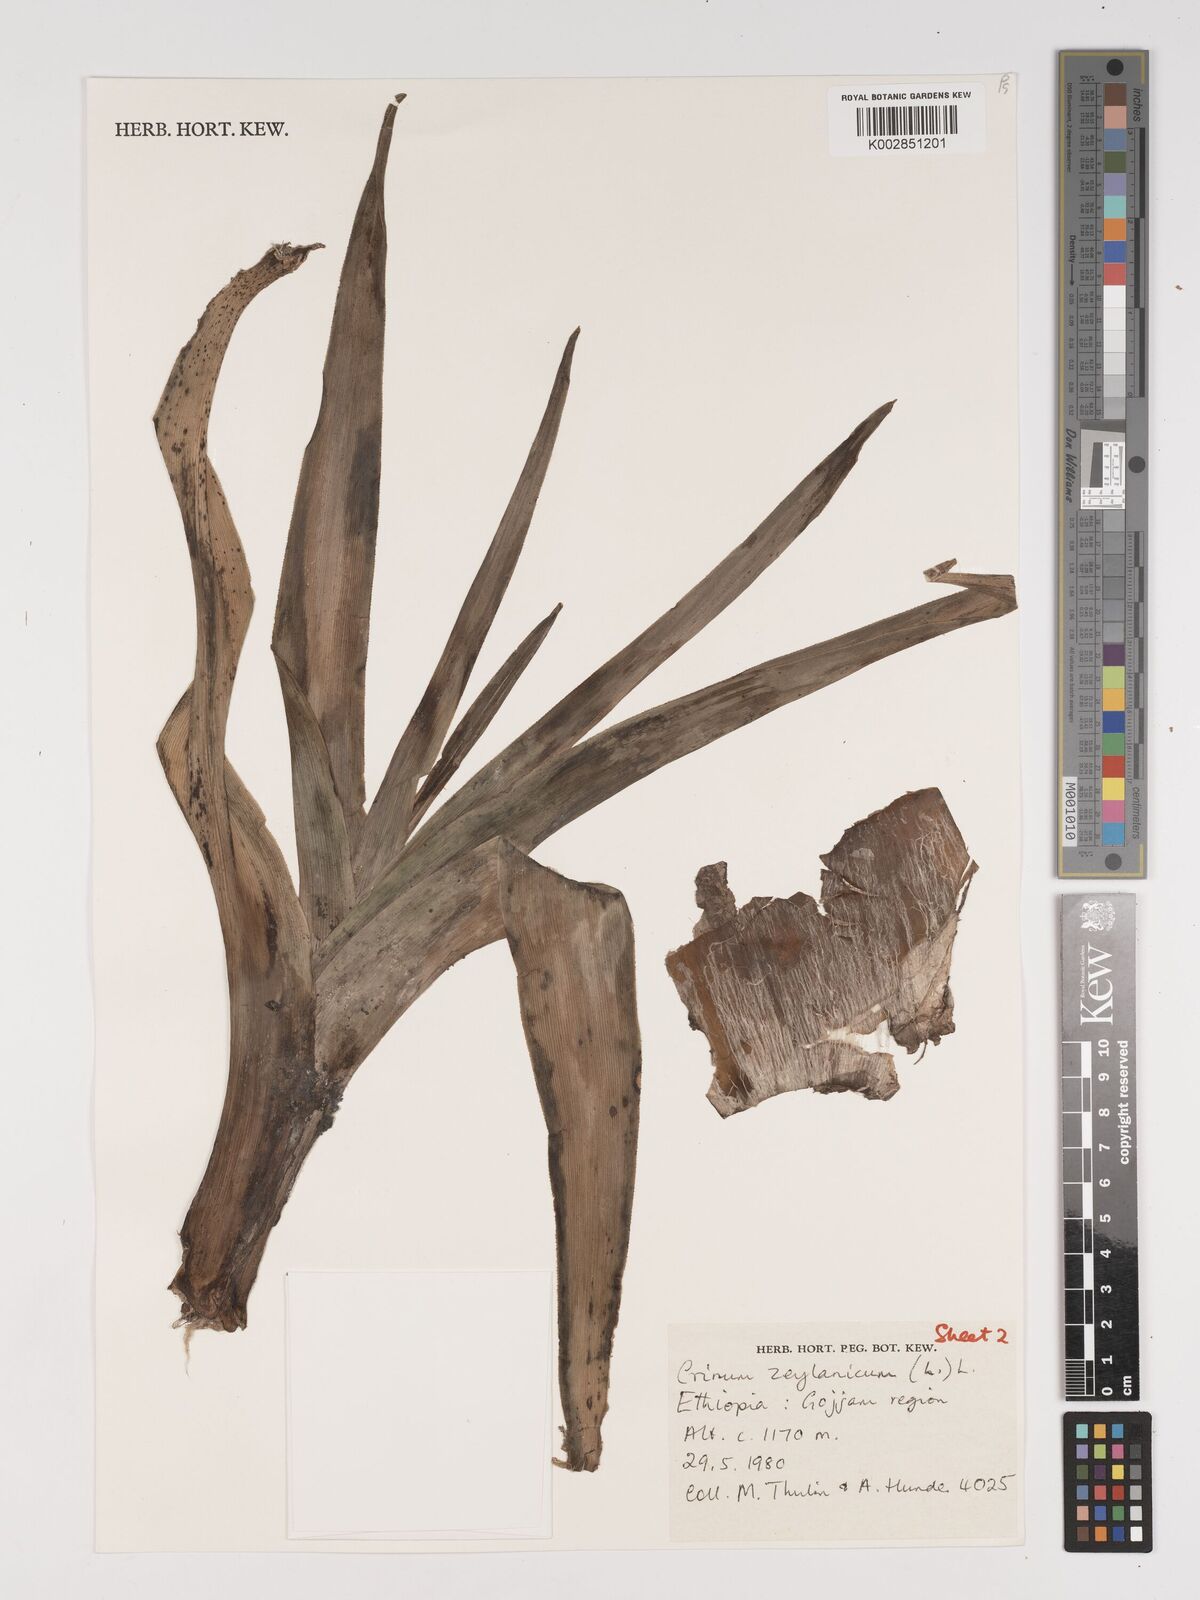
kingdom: Plantae
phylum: Tracheophyta
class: Liliopsida
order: Asparagales
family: Amaryllidaceae
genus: Crinum
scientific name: Crinum zeylanicum
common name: Ceylon swamplily
